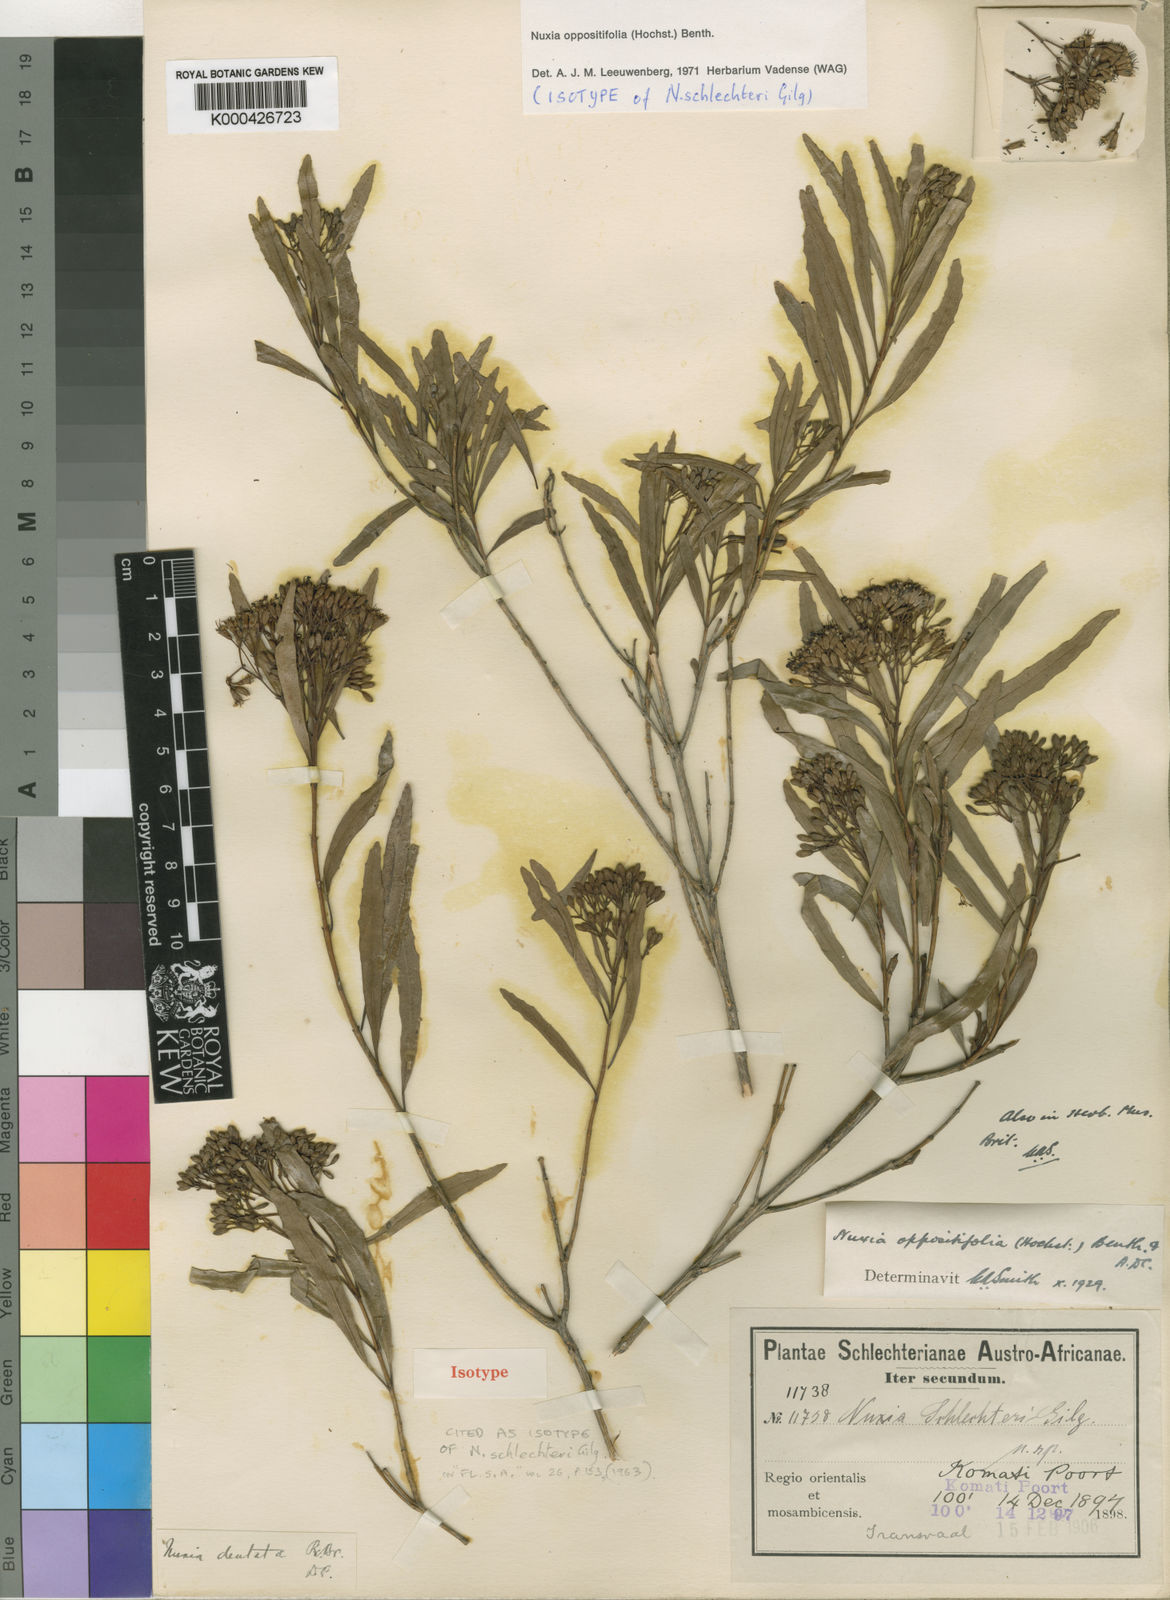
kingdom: Plantae
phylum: Tracheophyta
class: Magnoliopsida
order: Lamiales
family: Stilbaceae
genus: Nuxia
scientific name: Nuxia oppositifolia
